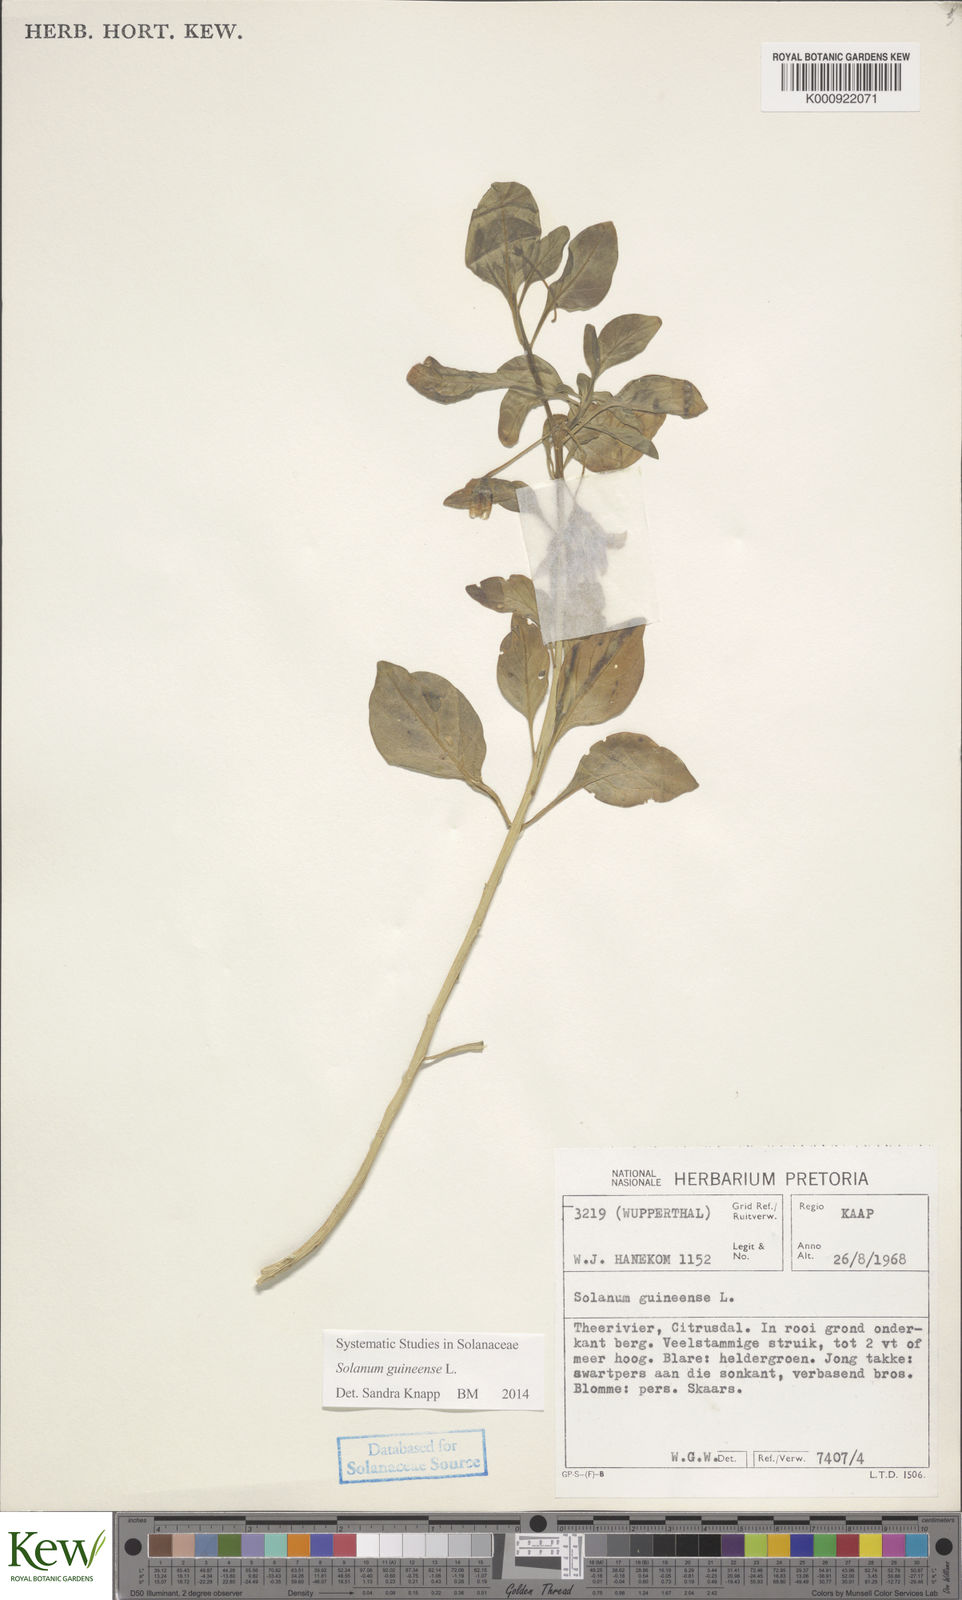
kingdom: Plantae
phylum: Tracheophyta
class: Magnoliopsida
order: Solanales
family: Solanaceae
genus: Solanum
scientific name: Solanum guineense
